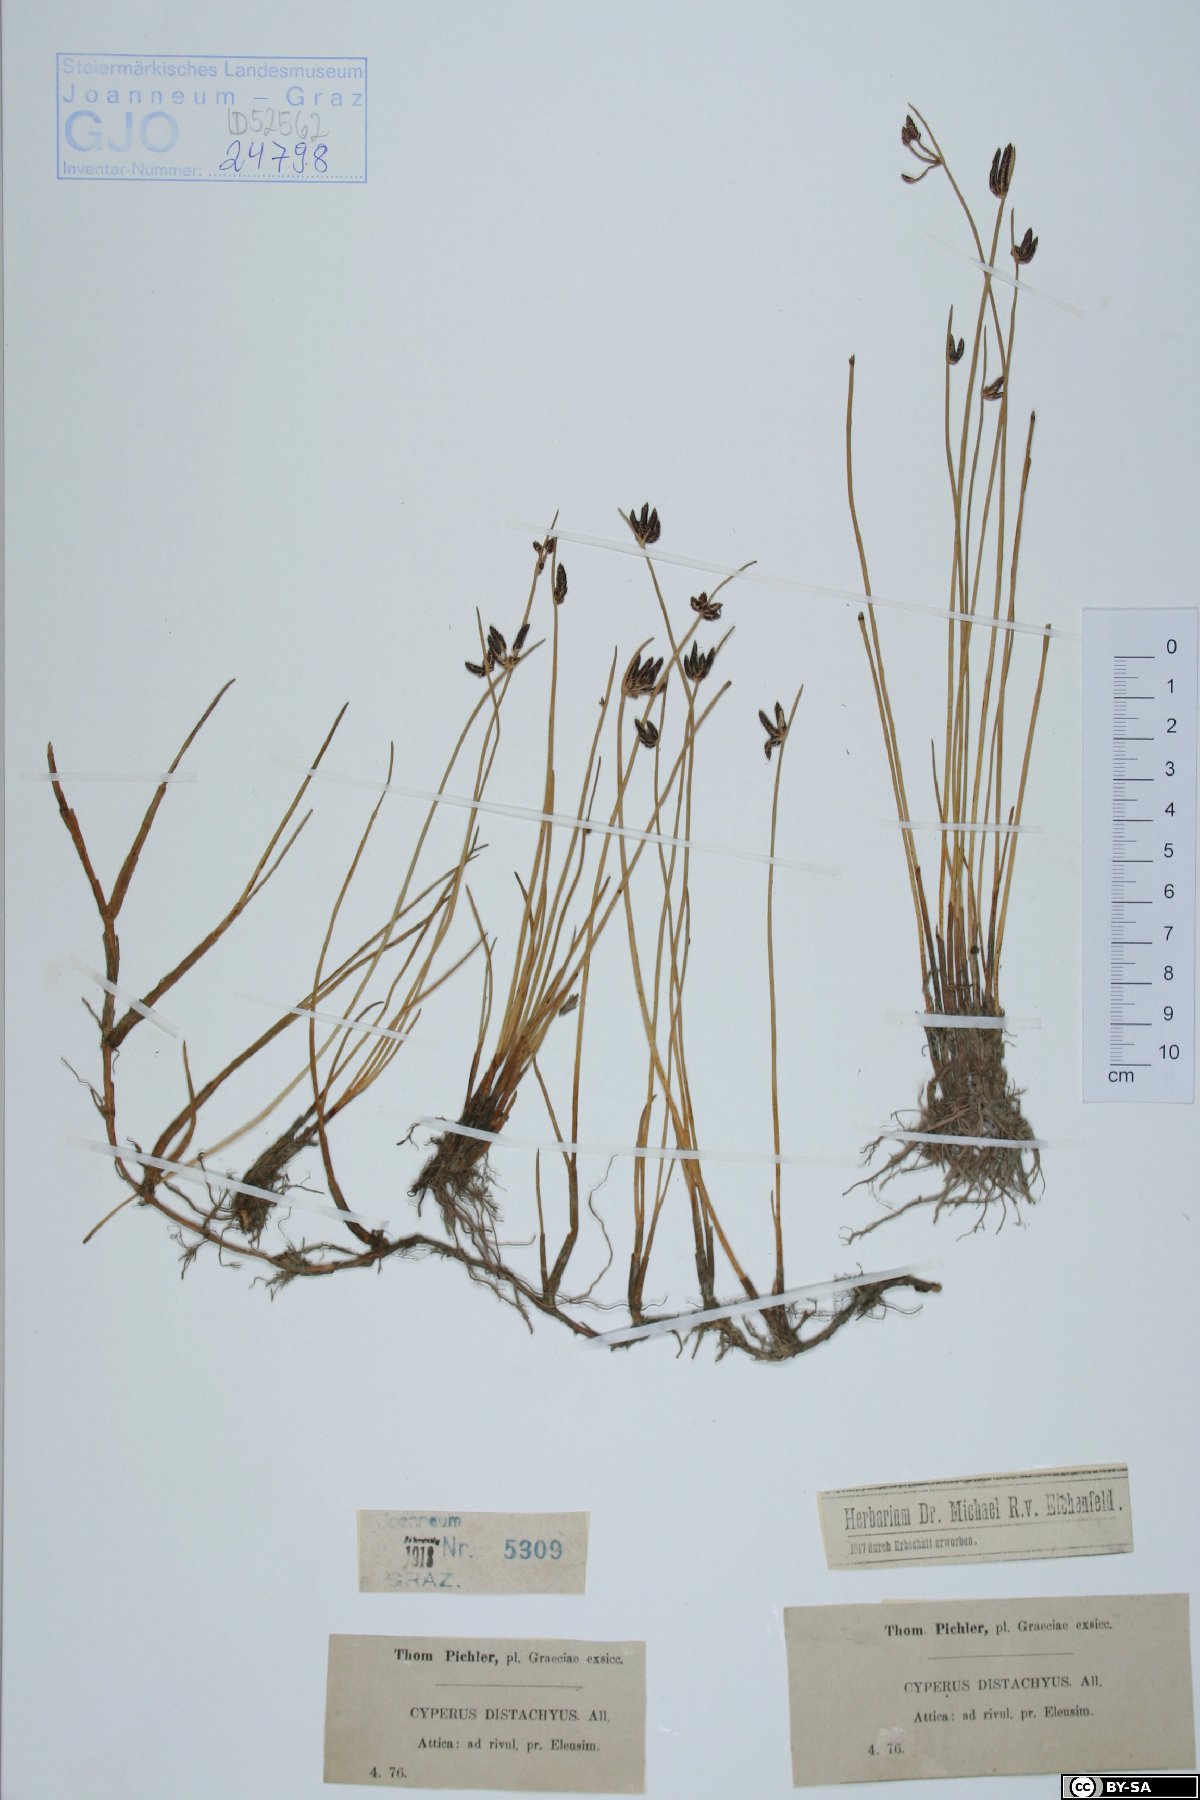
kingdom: Plantae
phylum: Tracheophyta
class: Liliopsida
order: Poales
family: Cyperaceae
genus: Cyperus
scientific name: Cyperus laevigatus
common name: Smooth flat sedge
